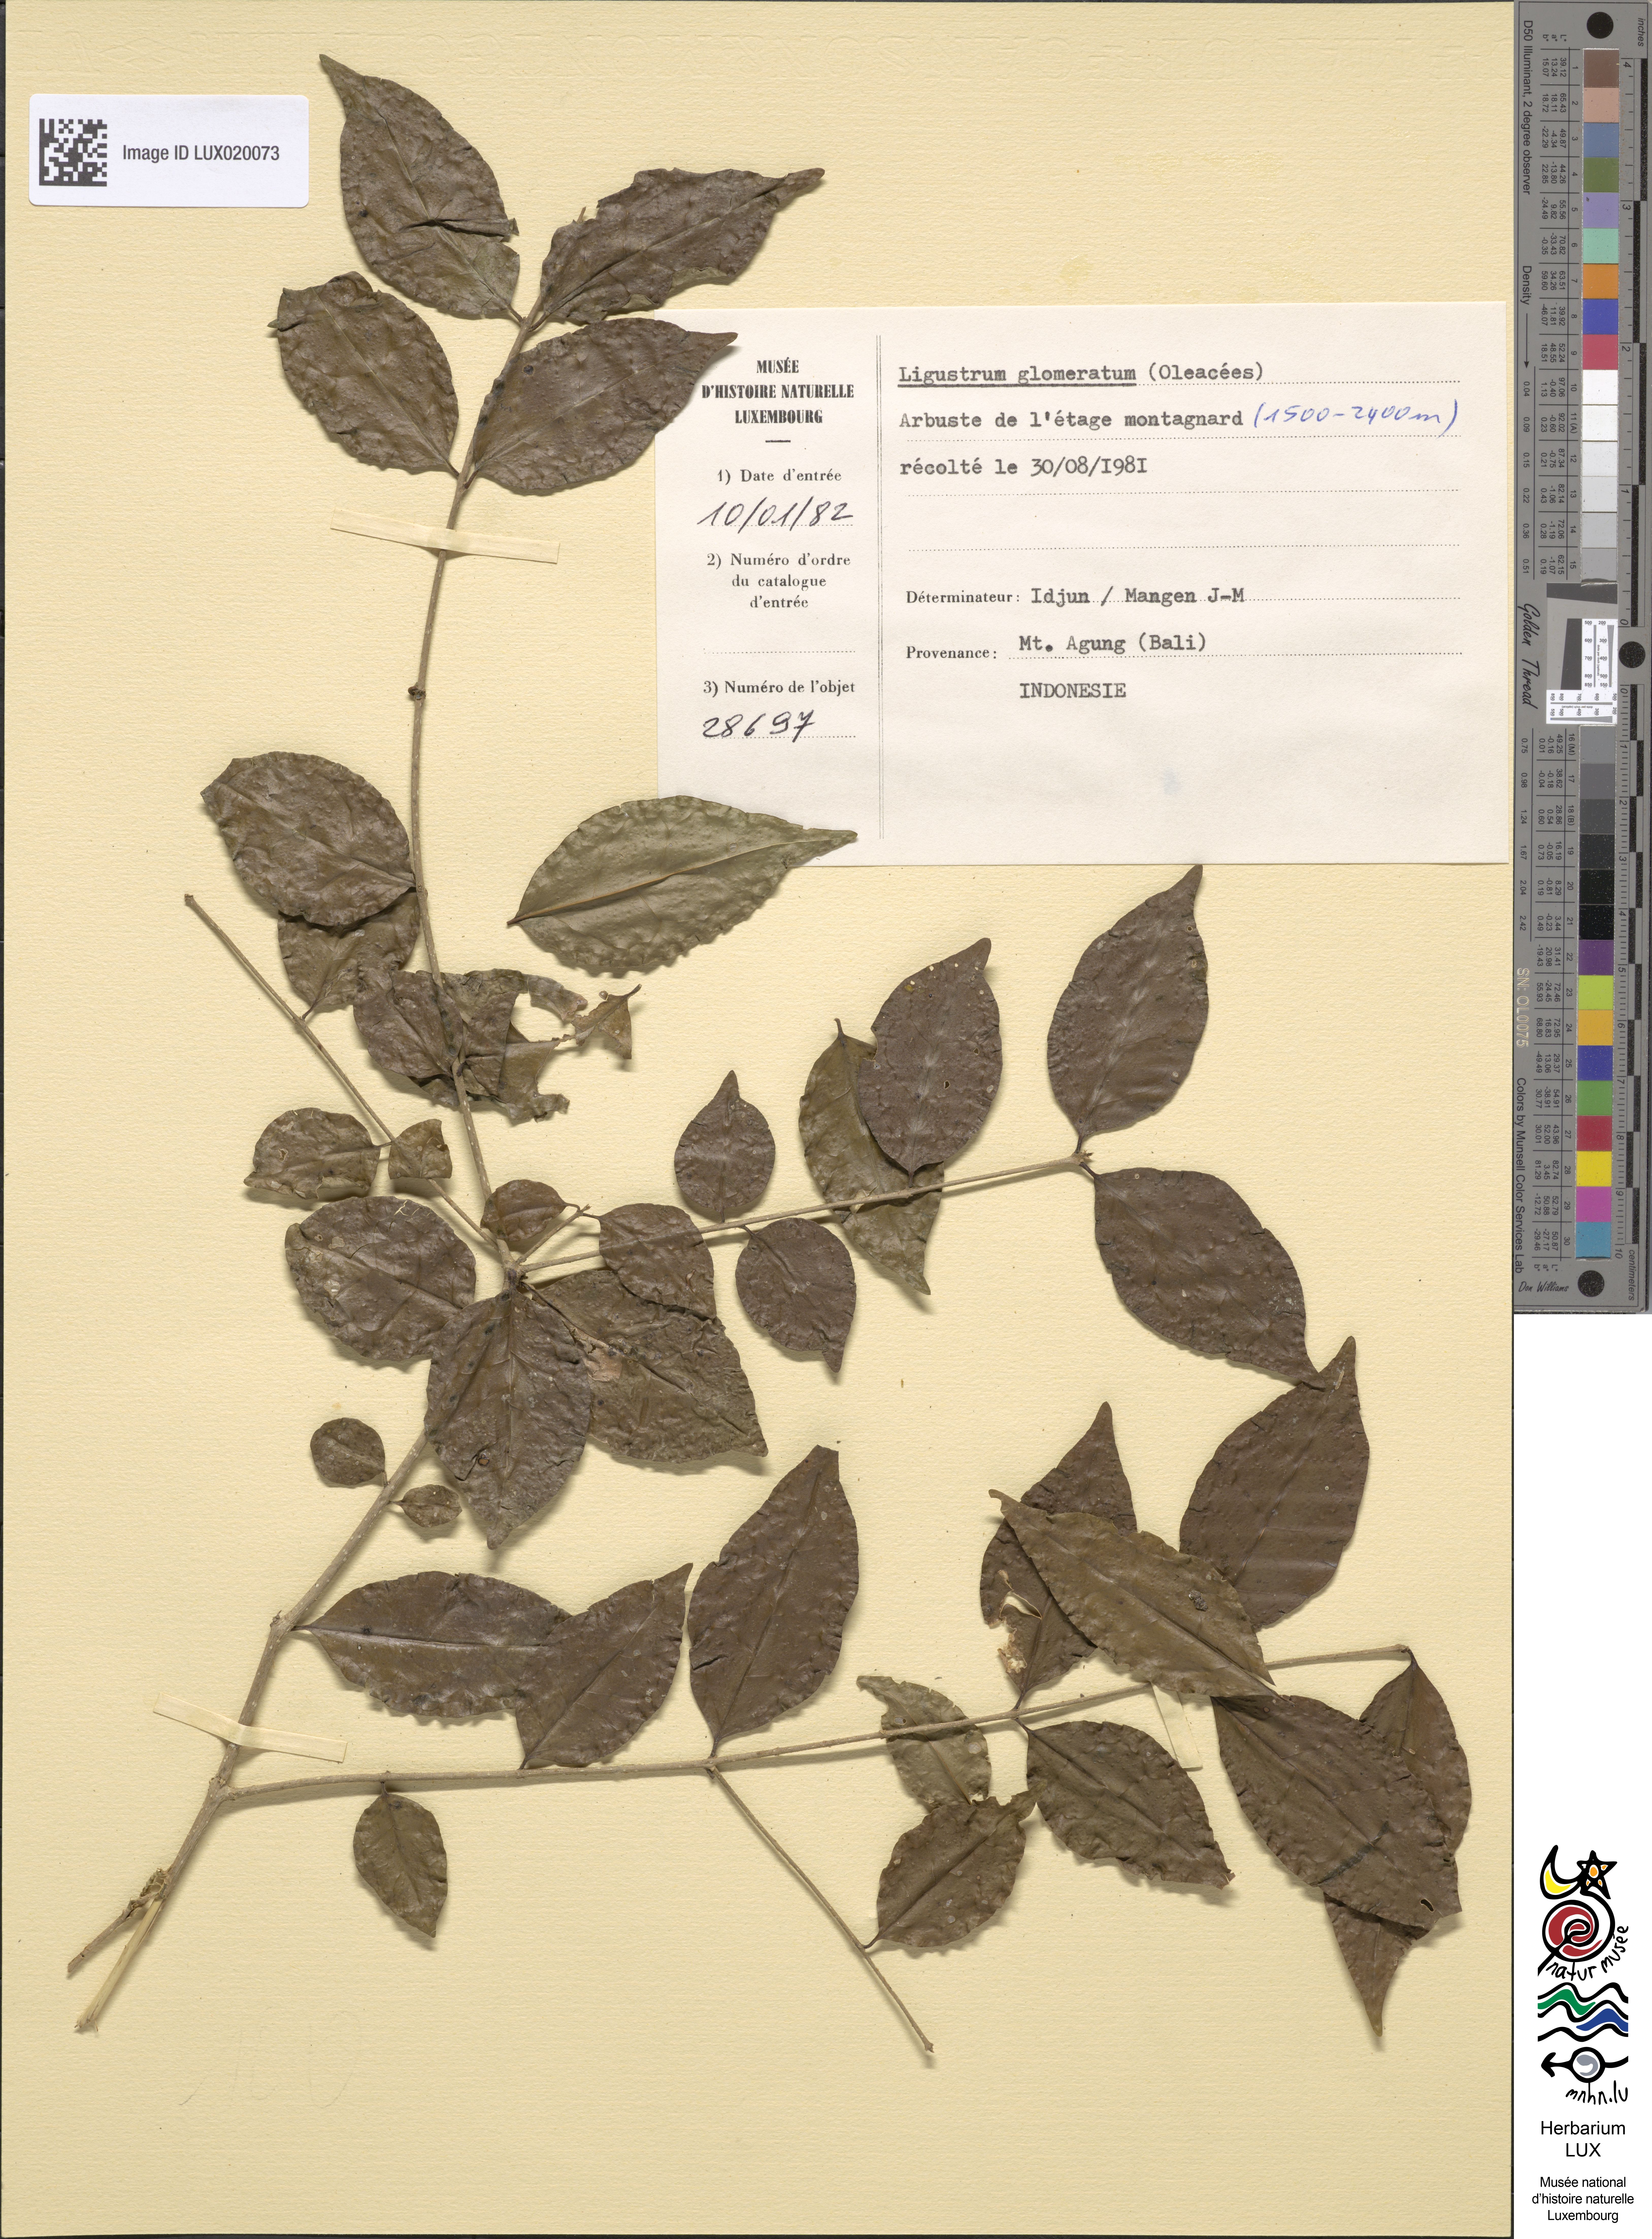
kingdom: Plantae
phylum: Tracheophyta
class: Magnoliopsida
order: Lamiales
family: Oleaceae
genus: Ligustrum
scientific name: Ligustrum glomeratum
